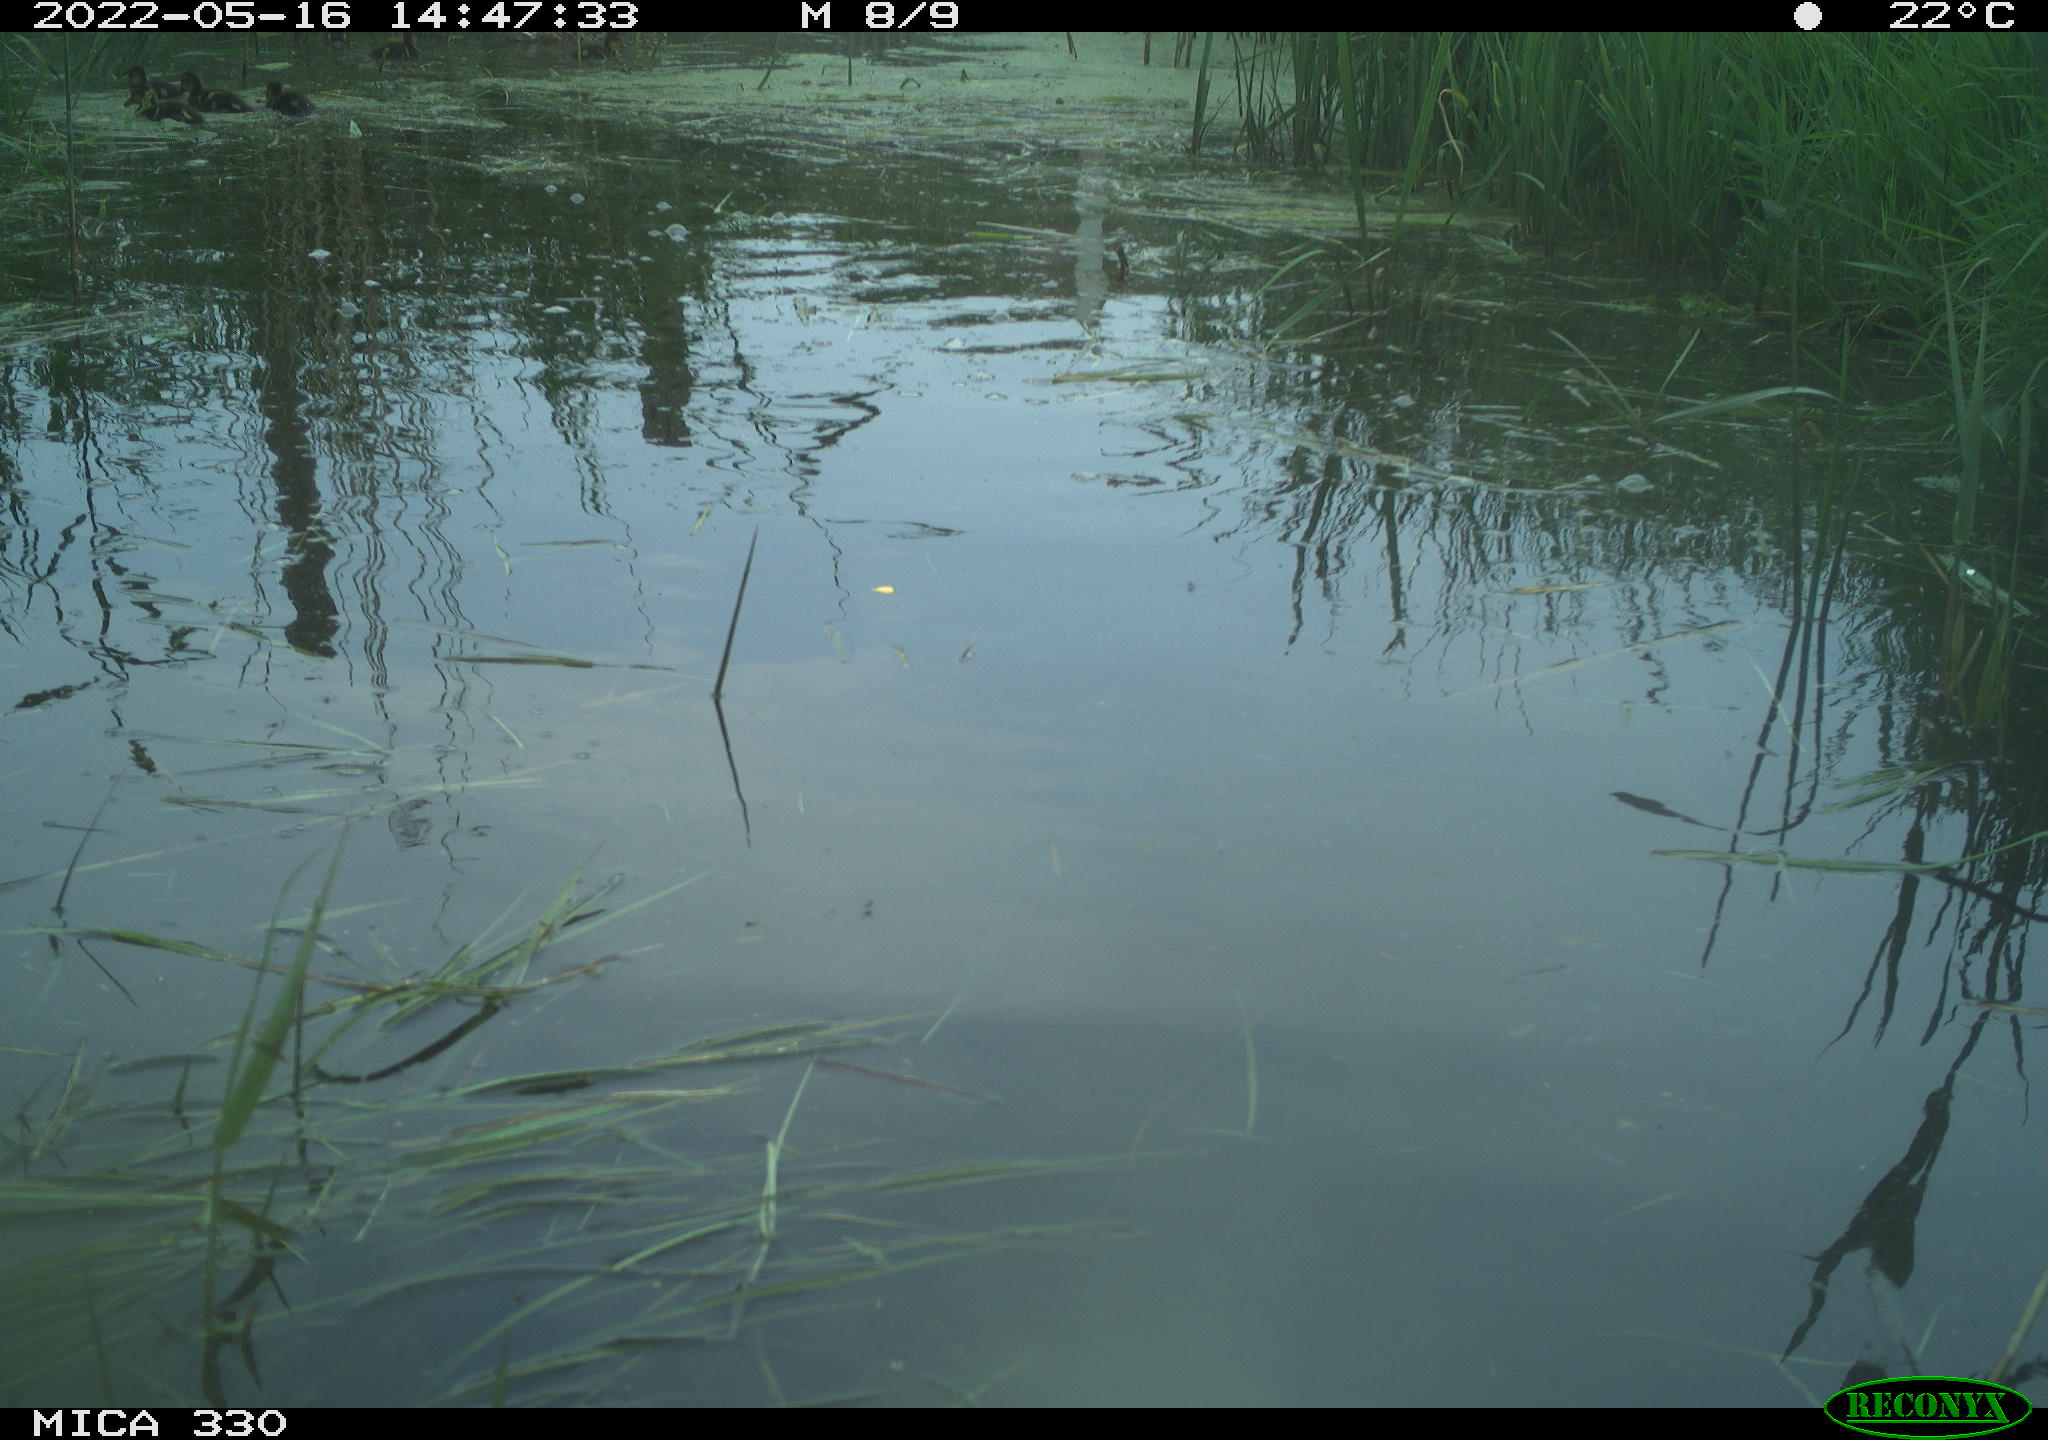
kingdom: Animalia
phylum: Chordata
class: Aves
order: Anseriformes
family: Anatidae
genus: Anas
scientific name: Anas platyrhynchos
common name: Mallard
